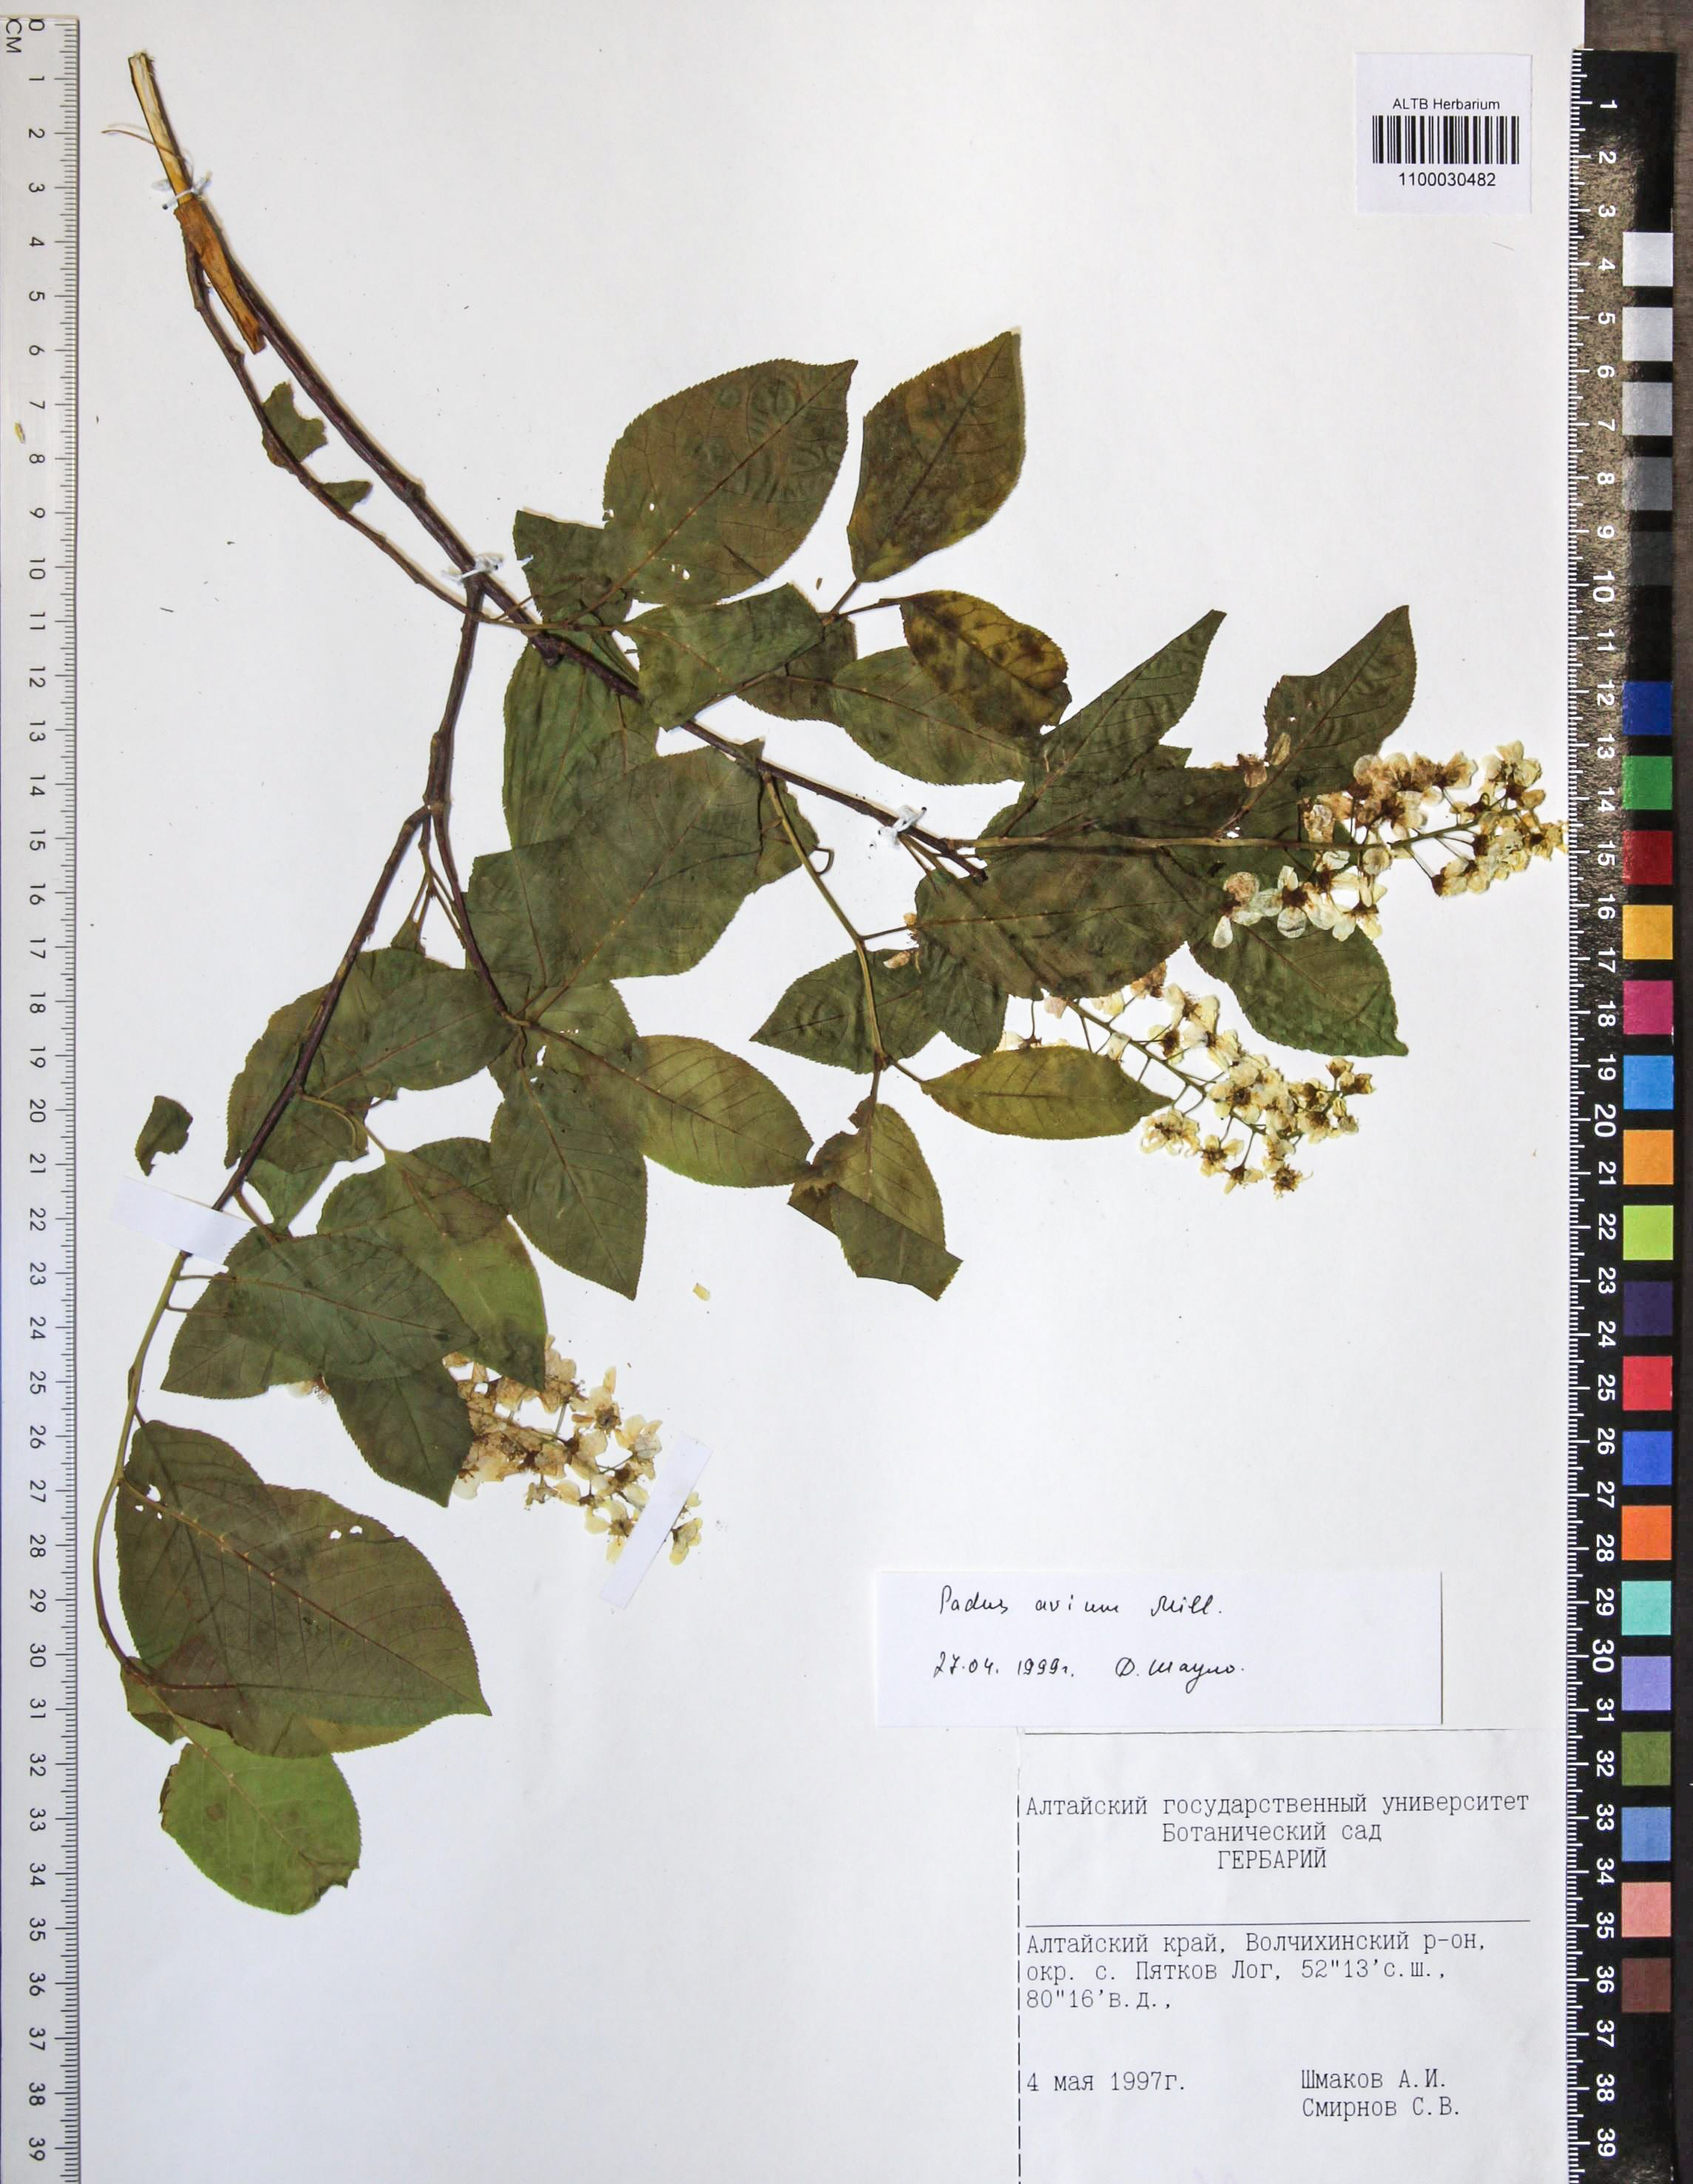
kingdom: Plantae
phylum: Tracheophyta
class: Magnoliopsida
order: Rosales
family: Rosaceae
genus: Prunus
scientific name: Prunus padus
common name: Bird cherry
